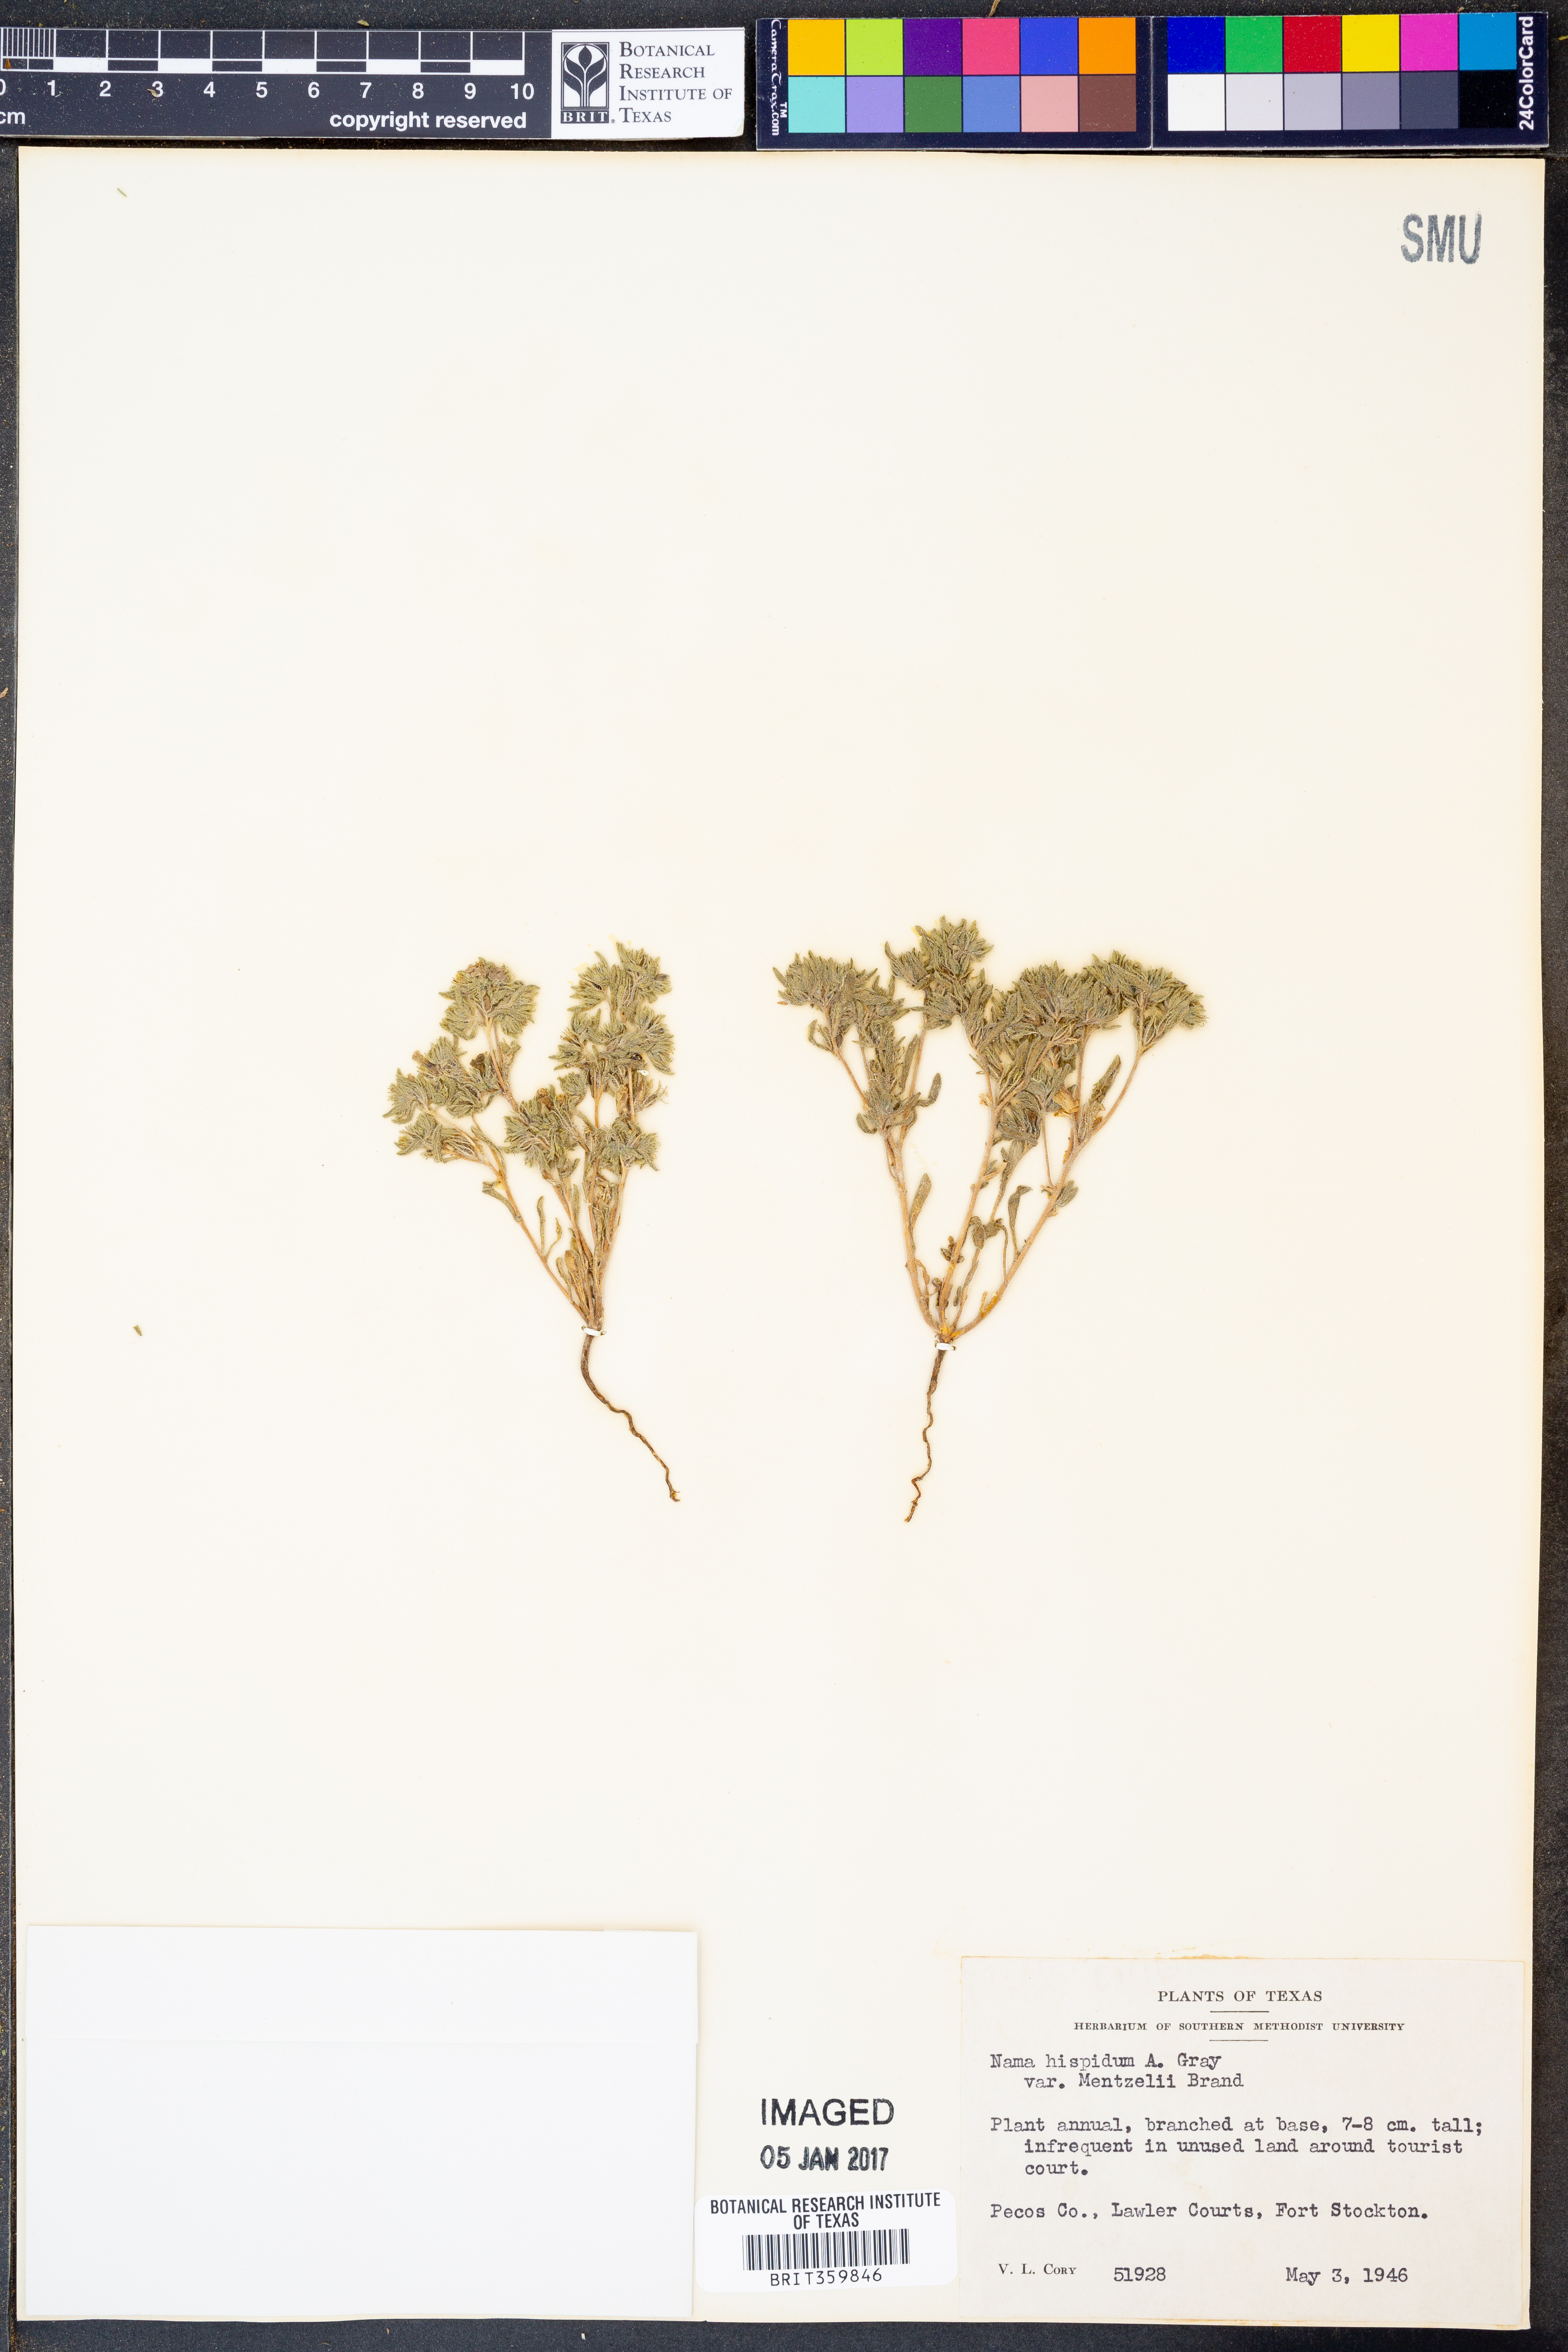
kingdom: Plantae
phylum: Tracheophyta
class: Magnoliopsida
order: Boraginales
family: Namaceae
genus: Nama
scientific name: Nama hispida
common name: Bristly nama
